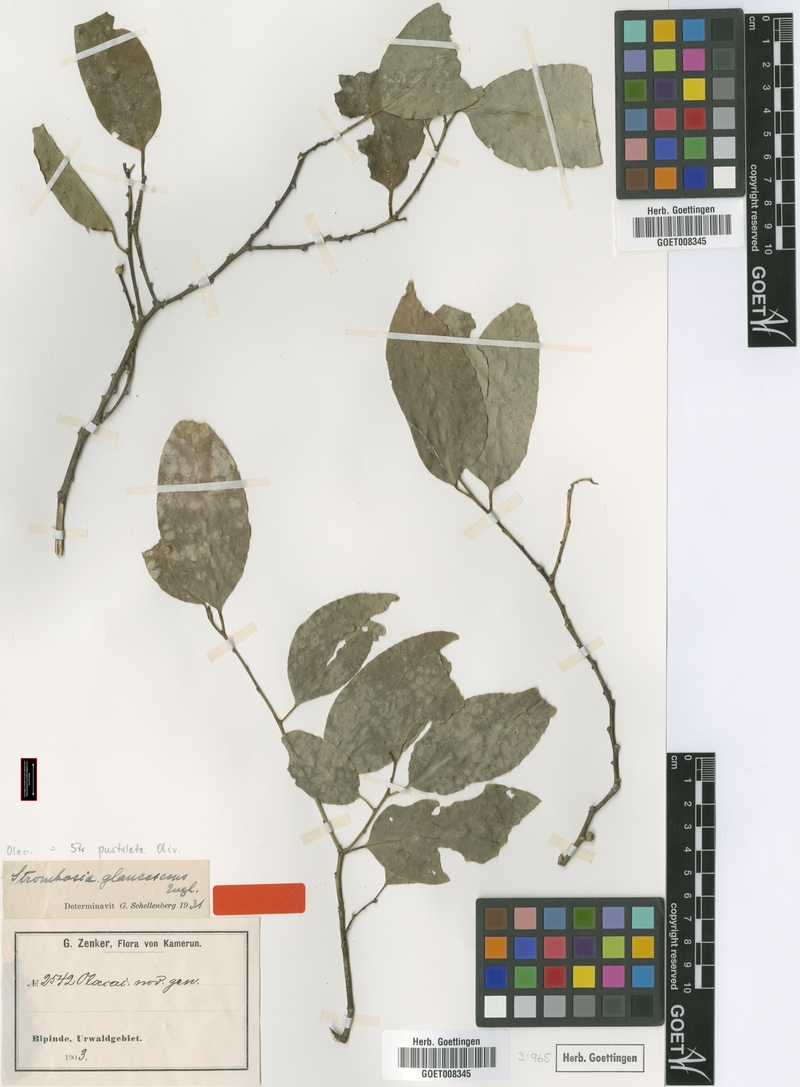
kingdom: Plantae
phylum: Tracheophyta
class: Magnoliopsida
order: Santalales
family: Strombosiaceae
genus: Strombosia
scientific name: Strombosia pustulata
